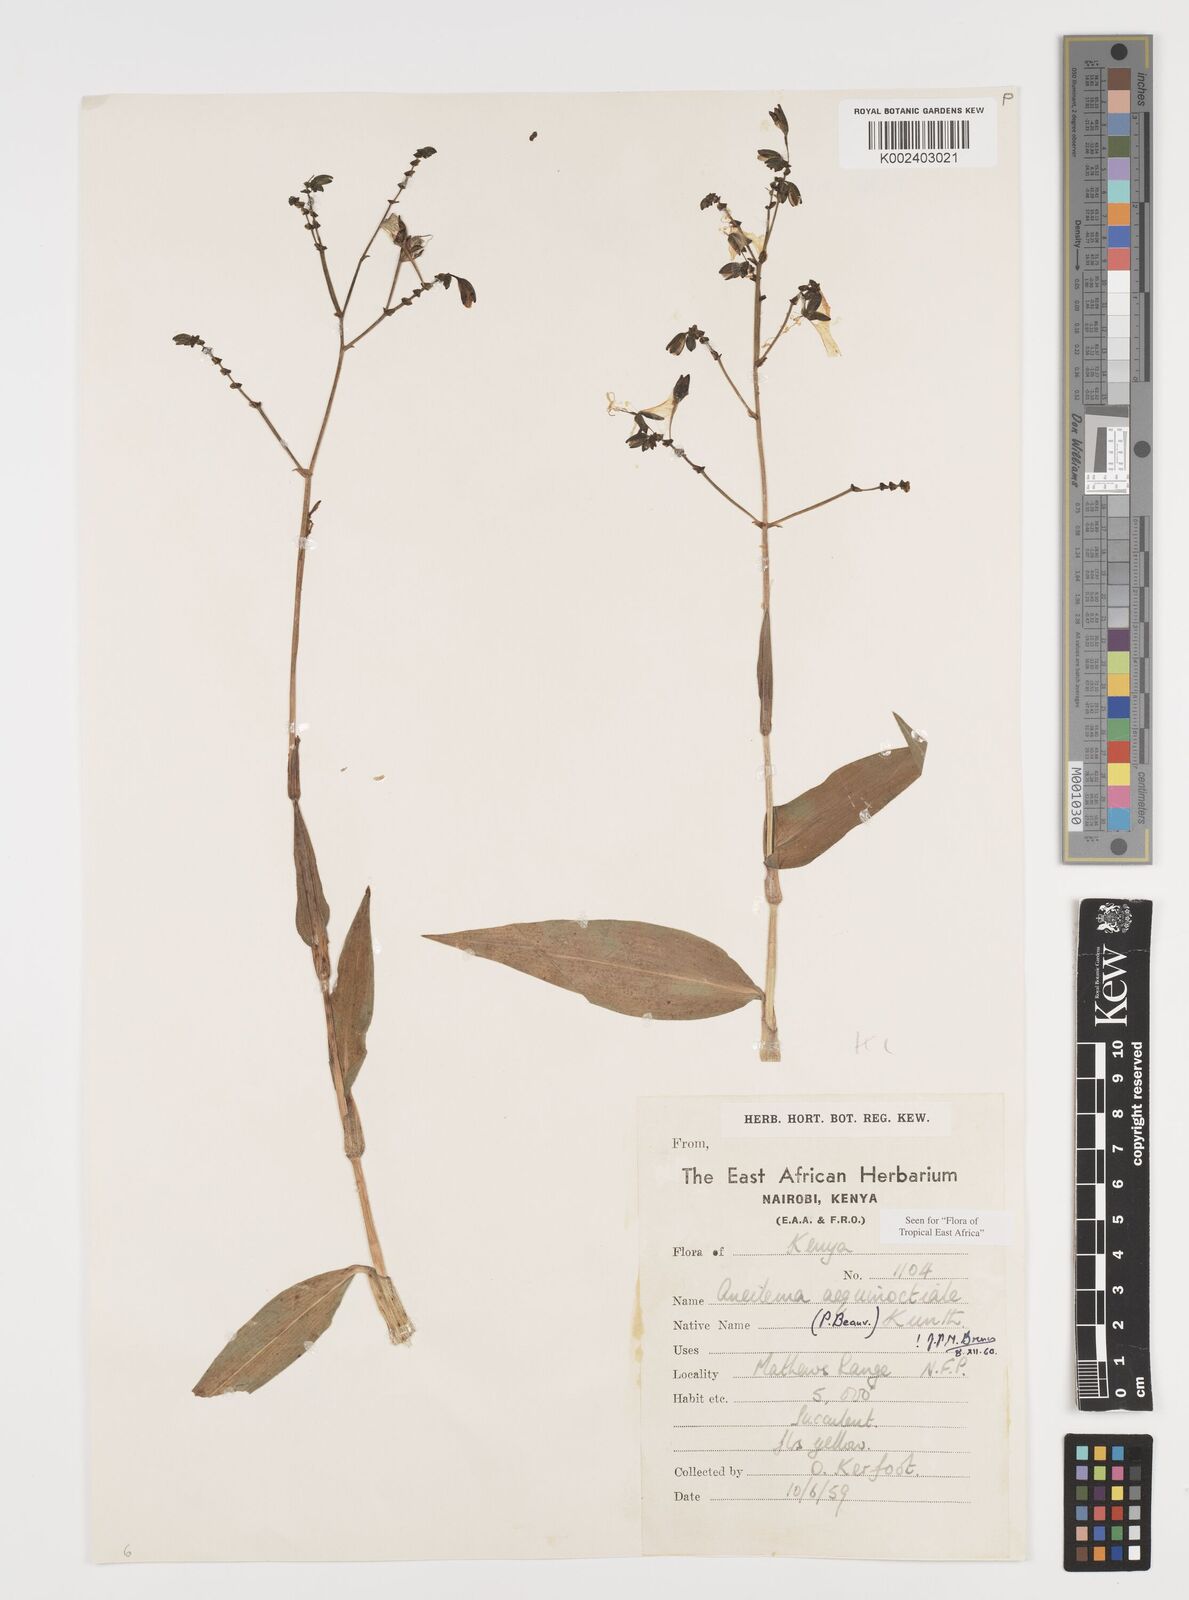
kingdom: Plantae
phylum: Tracheophyta
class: Liliopsida
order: Commelinales
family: Commelinaceae
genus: Aneilema
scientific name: Aneilema aequinoctiale
